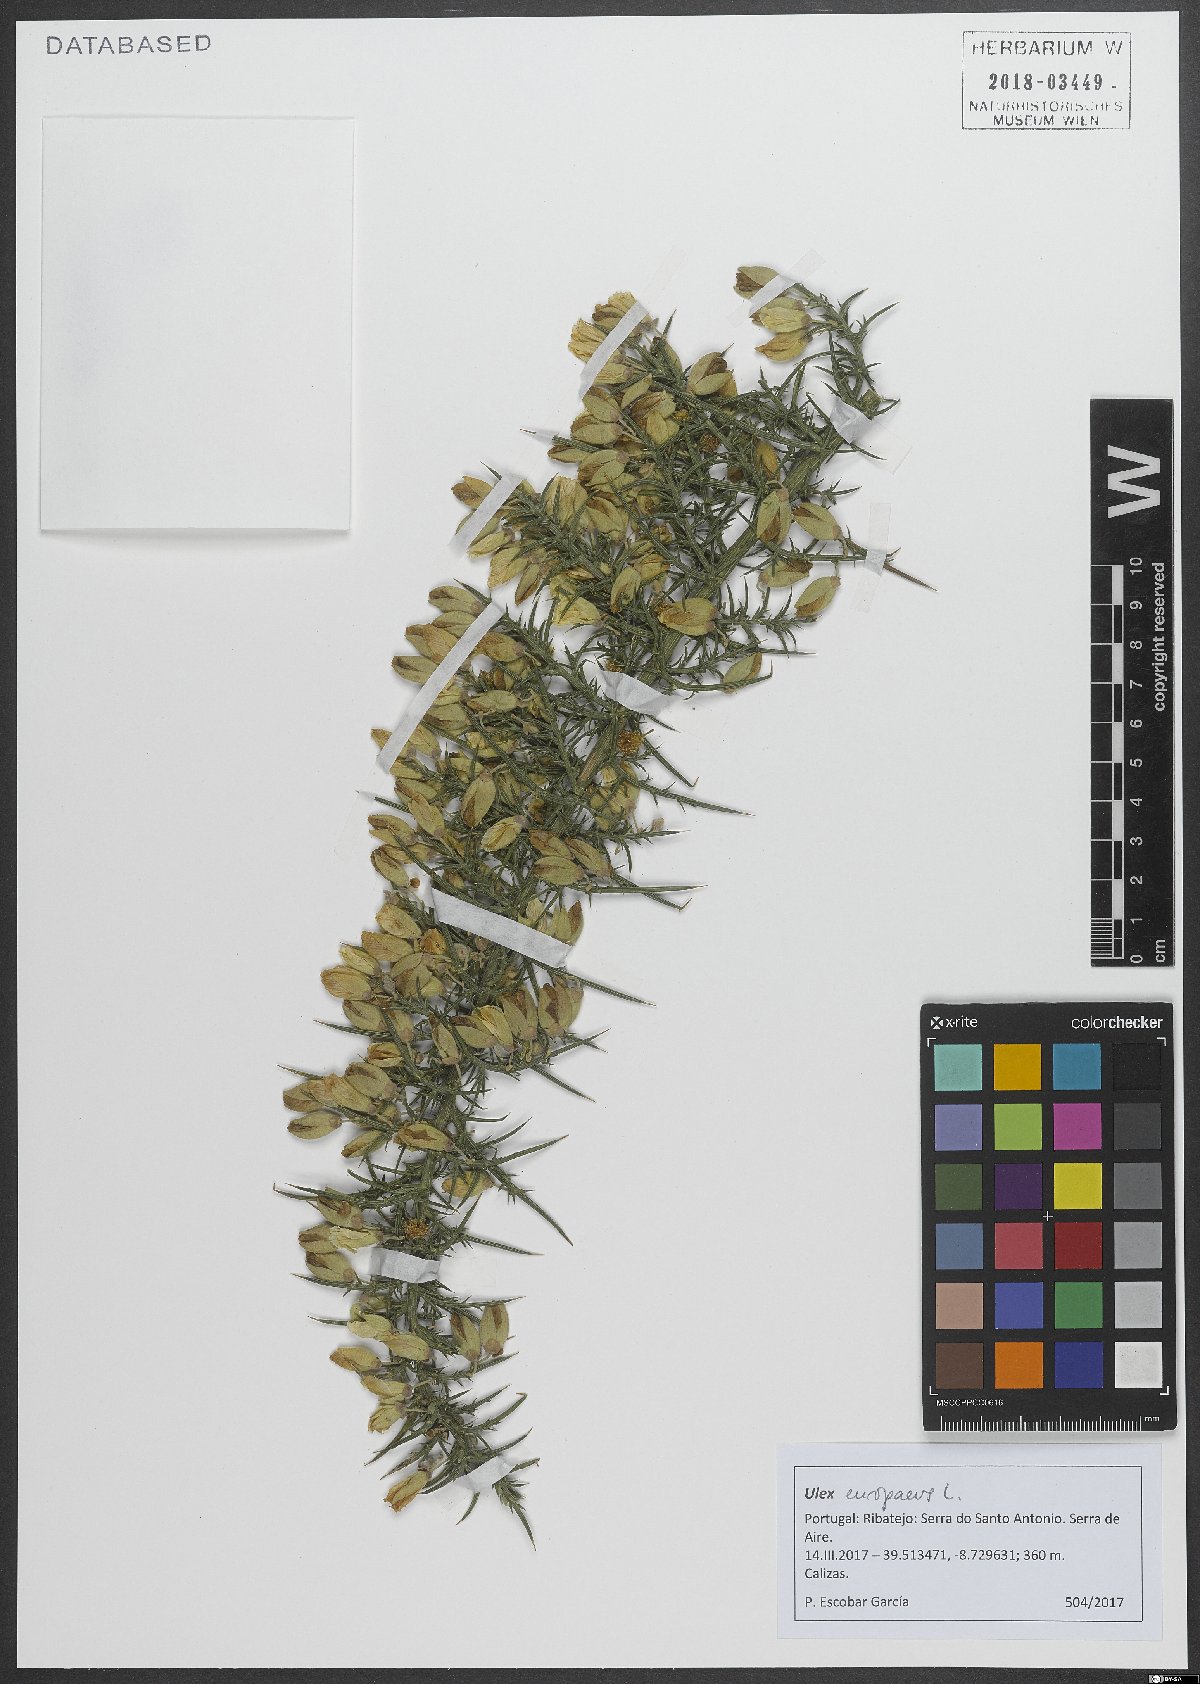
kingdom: Plantae
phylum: Tracheophyta
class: Magnoliopsida
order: Fabales
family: Fabaceae
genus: Ulex
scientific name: Ulex europaeus
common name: Common gorse
